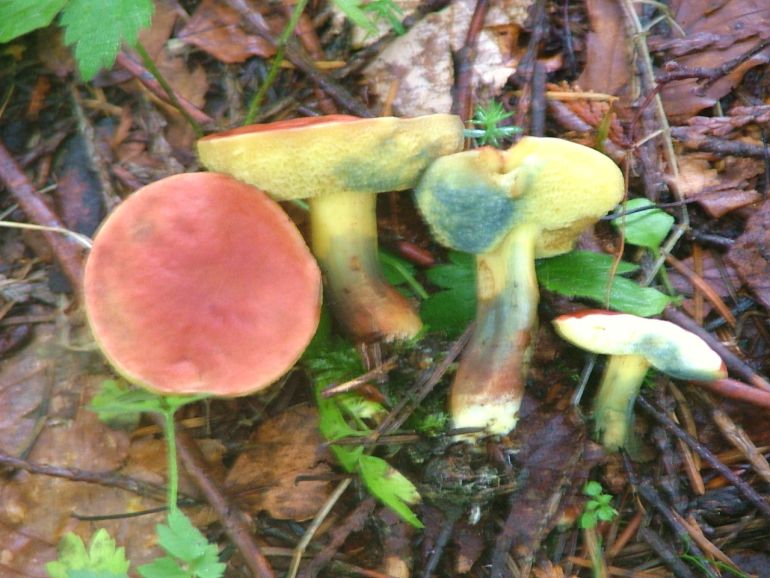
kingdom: Fungi
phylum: Basidiomycota
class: Agaricomycetes
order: Boletales
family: Boletaceae
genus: Hortiboletus
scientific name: Hortiboletus rubellus
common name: blodrød rørhat
